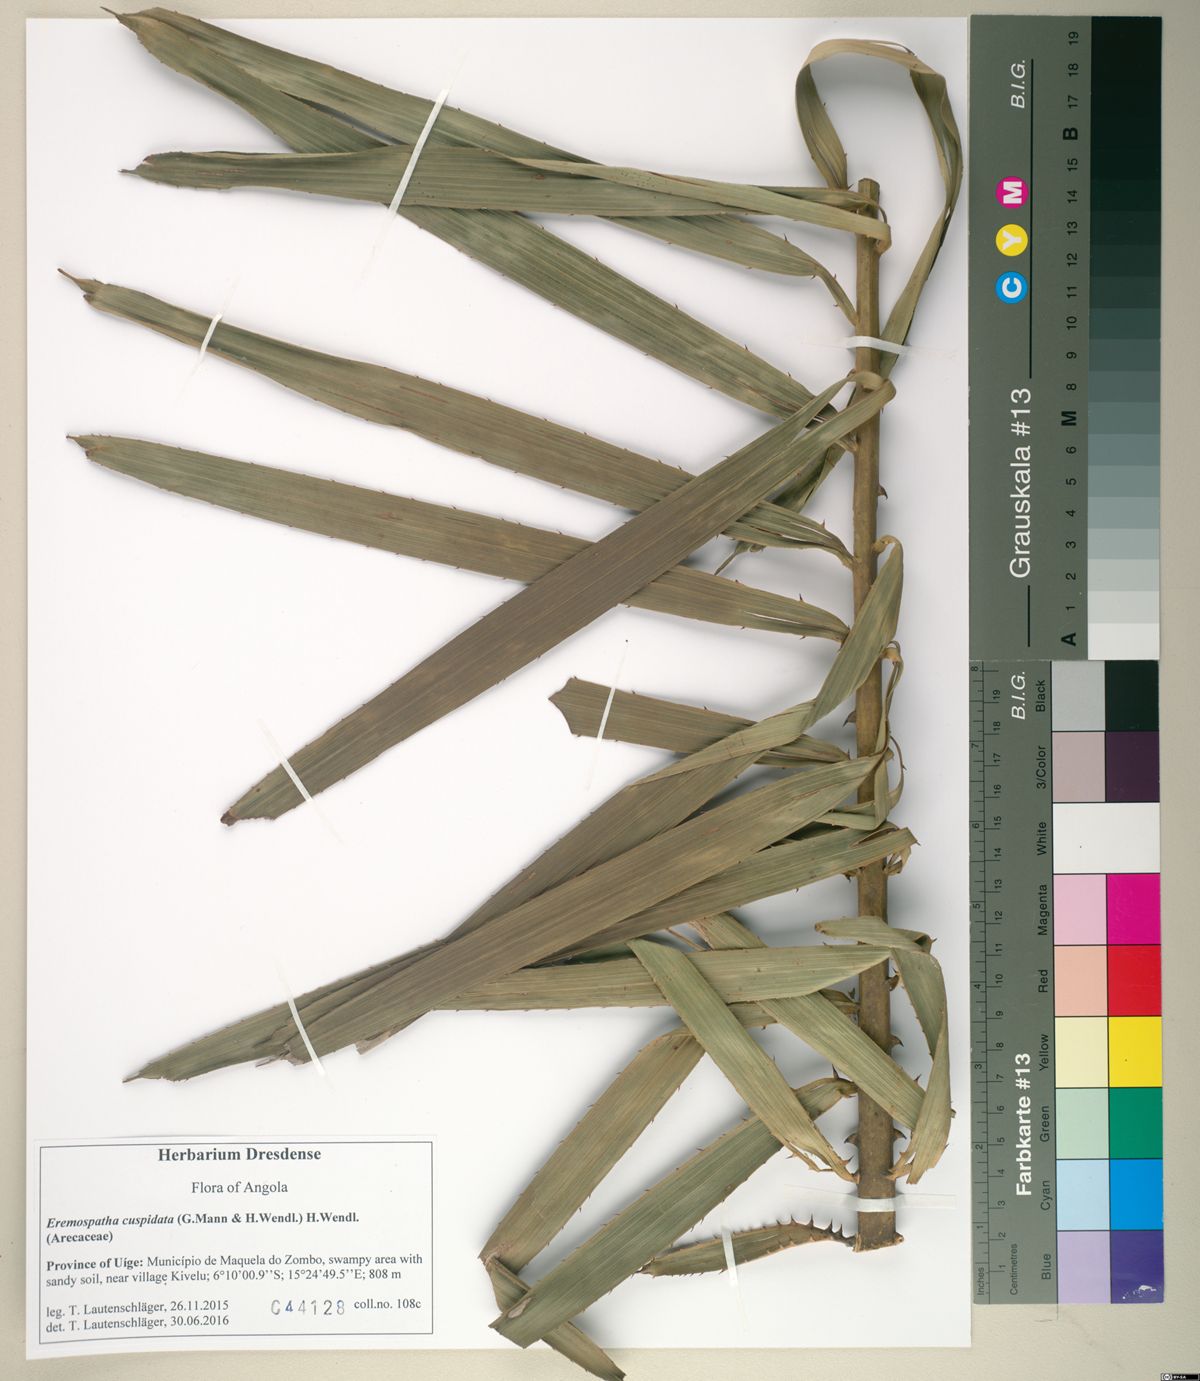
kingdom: Plantae
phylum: Tracheophyta
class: Liliopsida
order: Arecales
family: Arecaceae
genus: Eremospatha
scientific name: Eremospatha cuspidata
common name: Rattan
